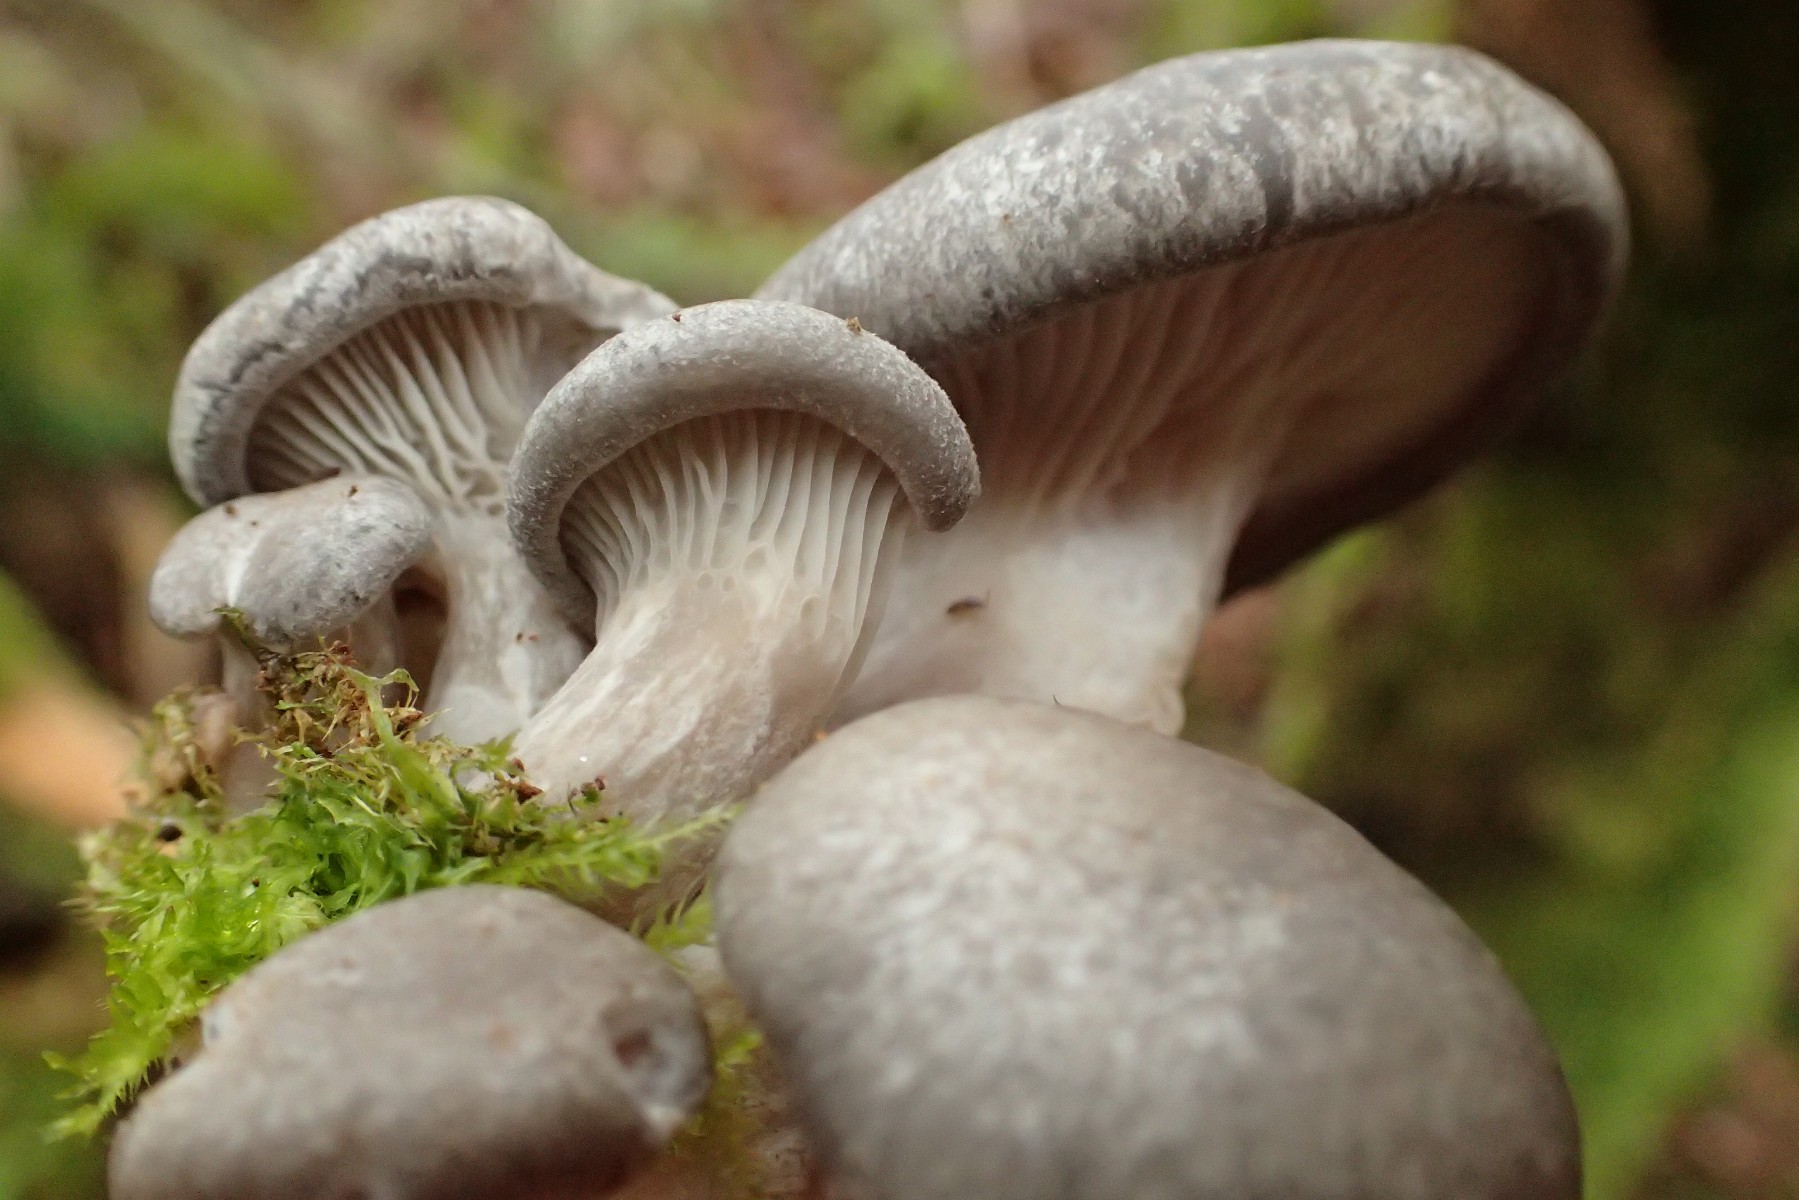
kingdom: Fungi
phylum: Basidiomycota
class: Agaricomycetes
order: Agaricales
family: Pleurotaceae
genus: Pleurotus
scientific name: Pleurotus ostreatus
